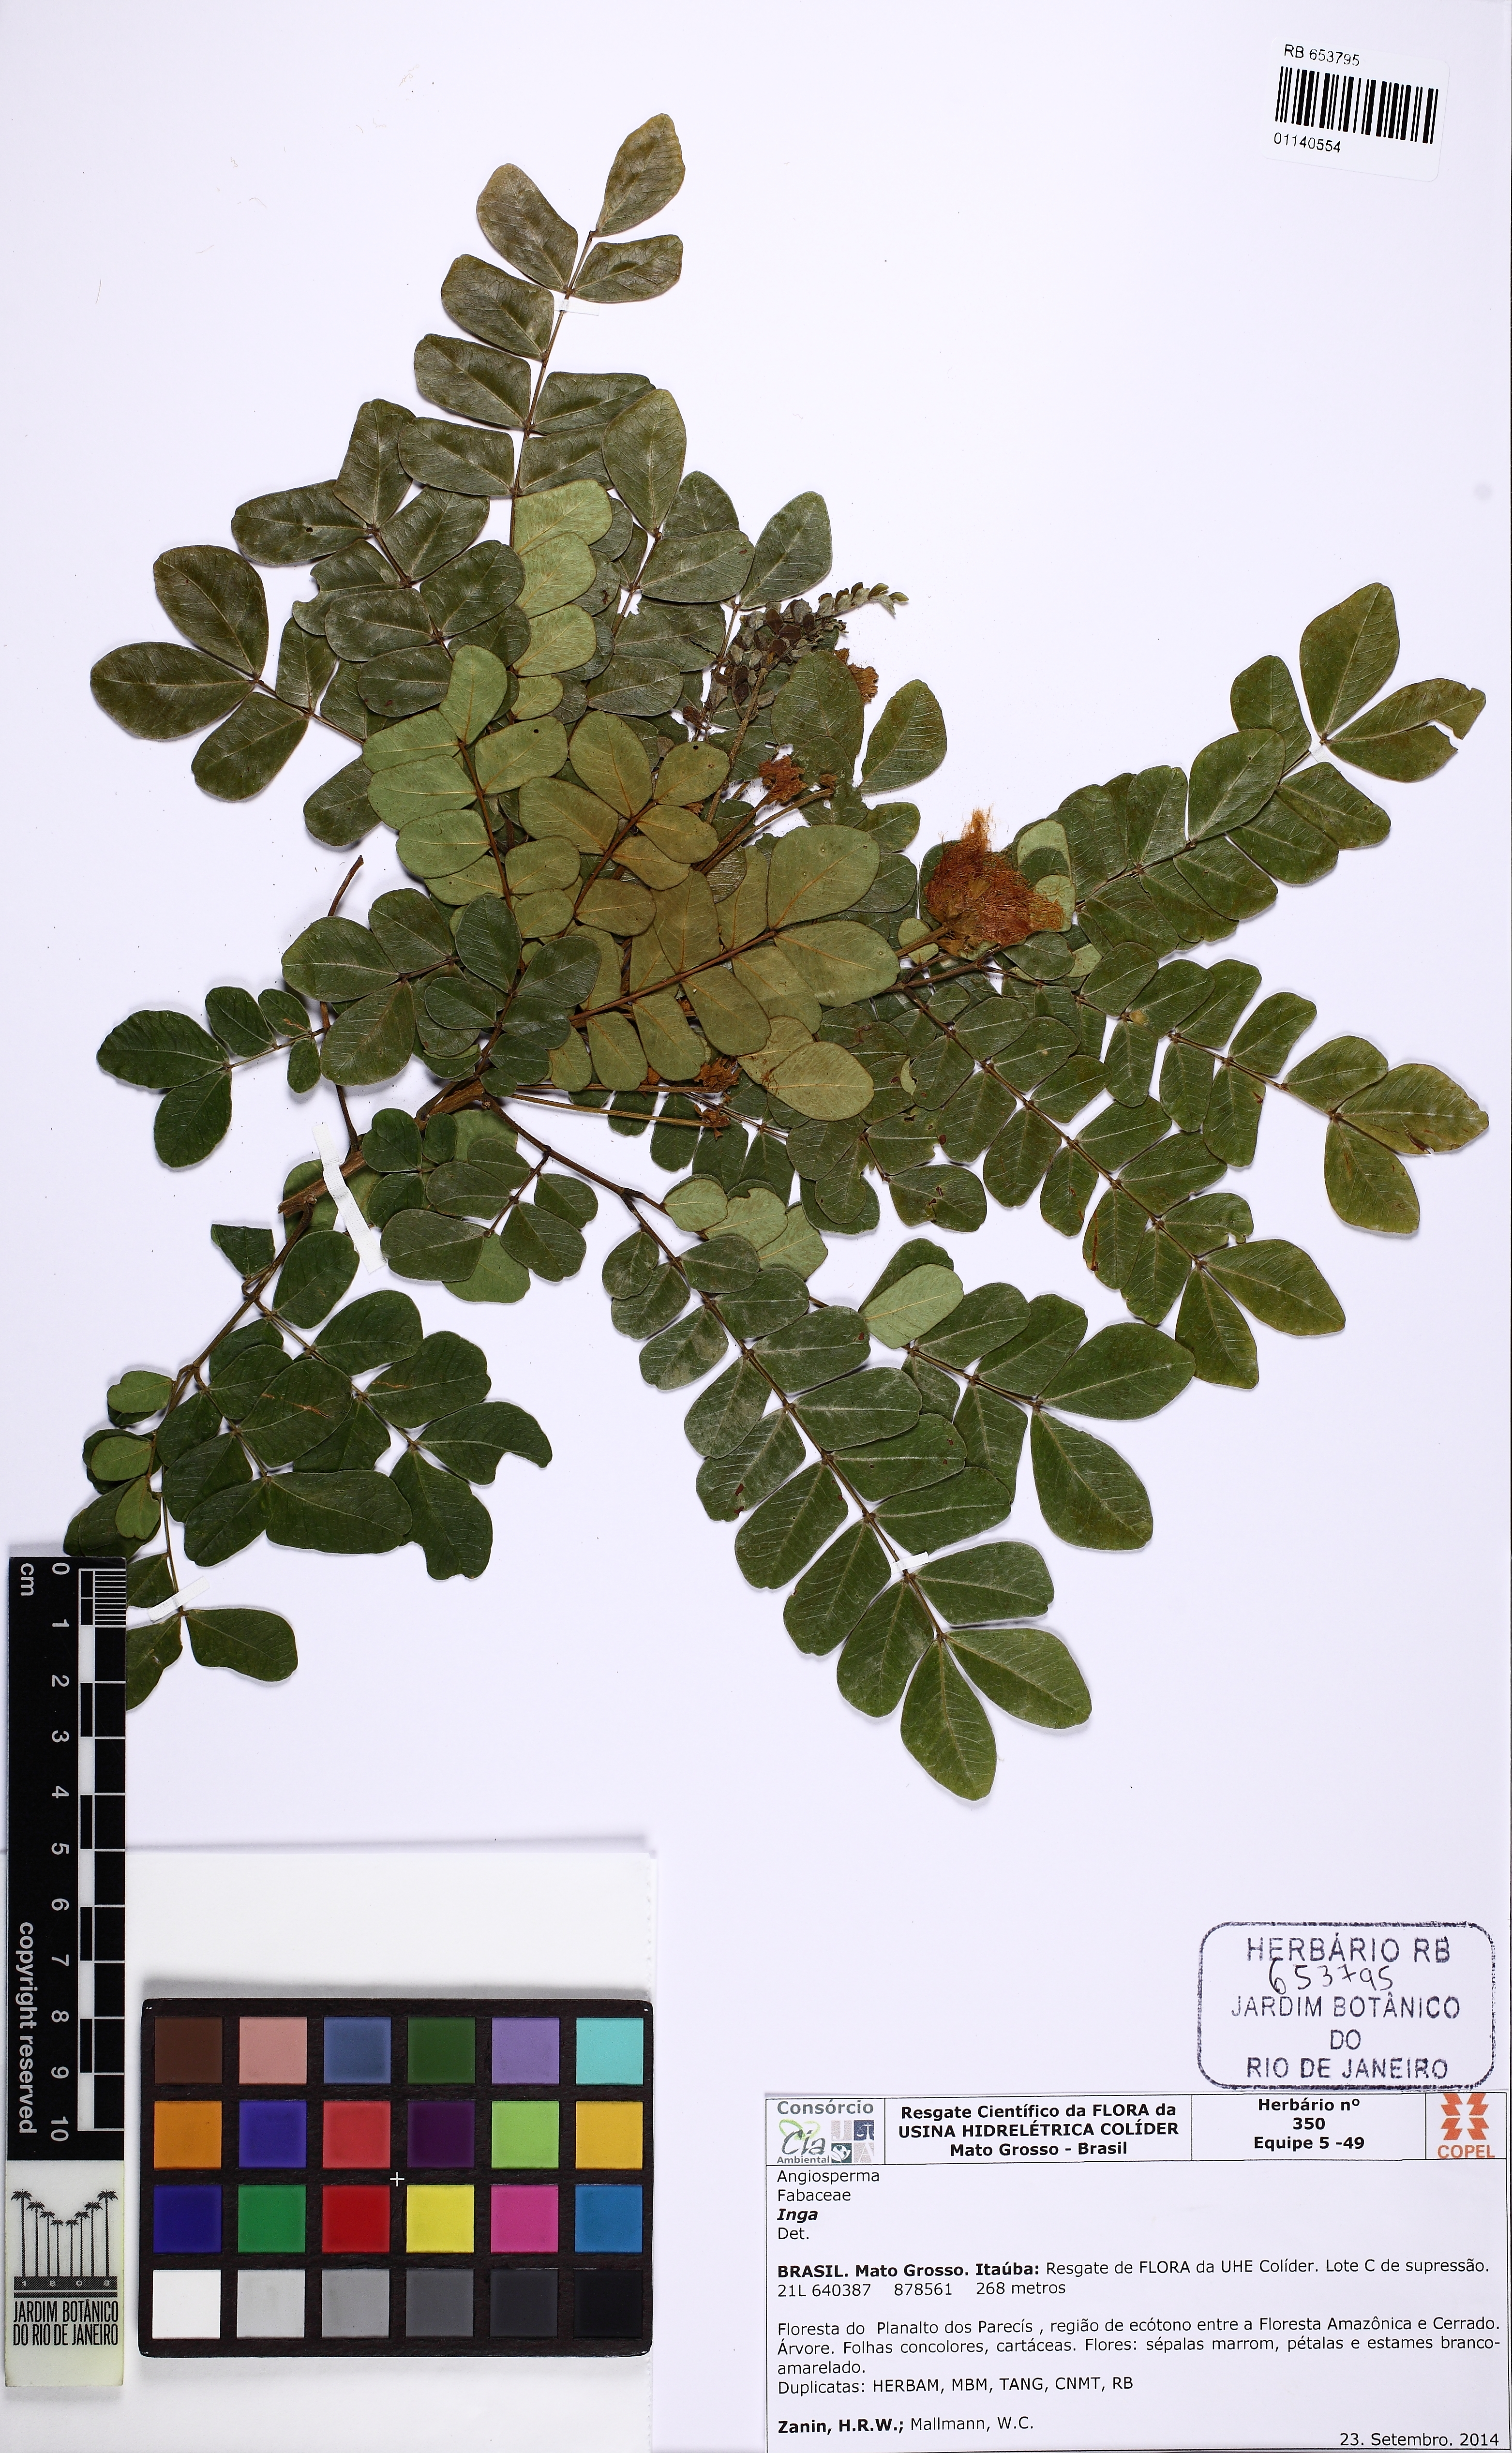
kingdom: Plantae
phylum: Tracheophyta
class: Magnoliopsida
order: Fabales
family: Fabaceae
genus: Jupunba
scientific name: Jupunba trapezifolia
